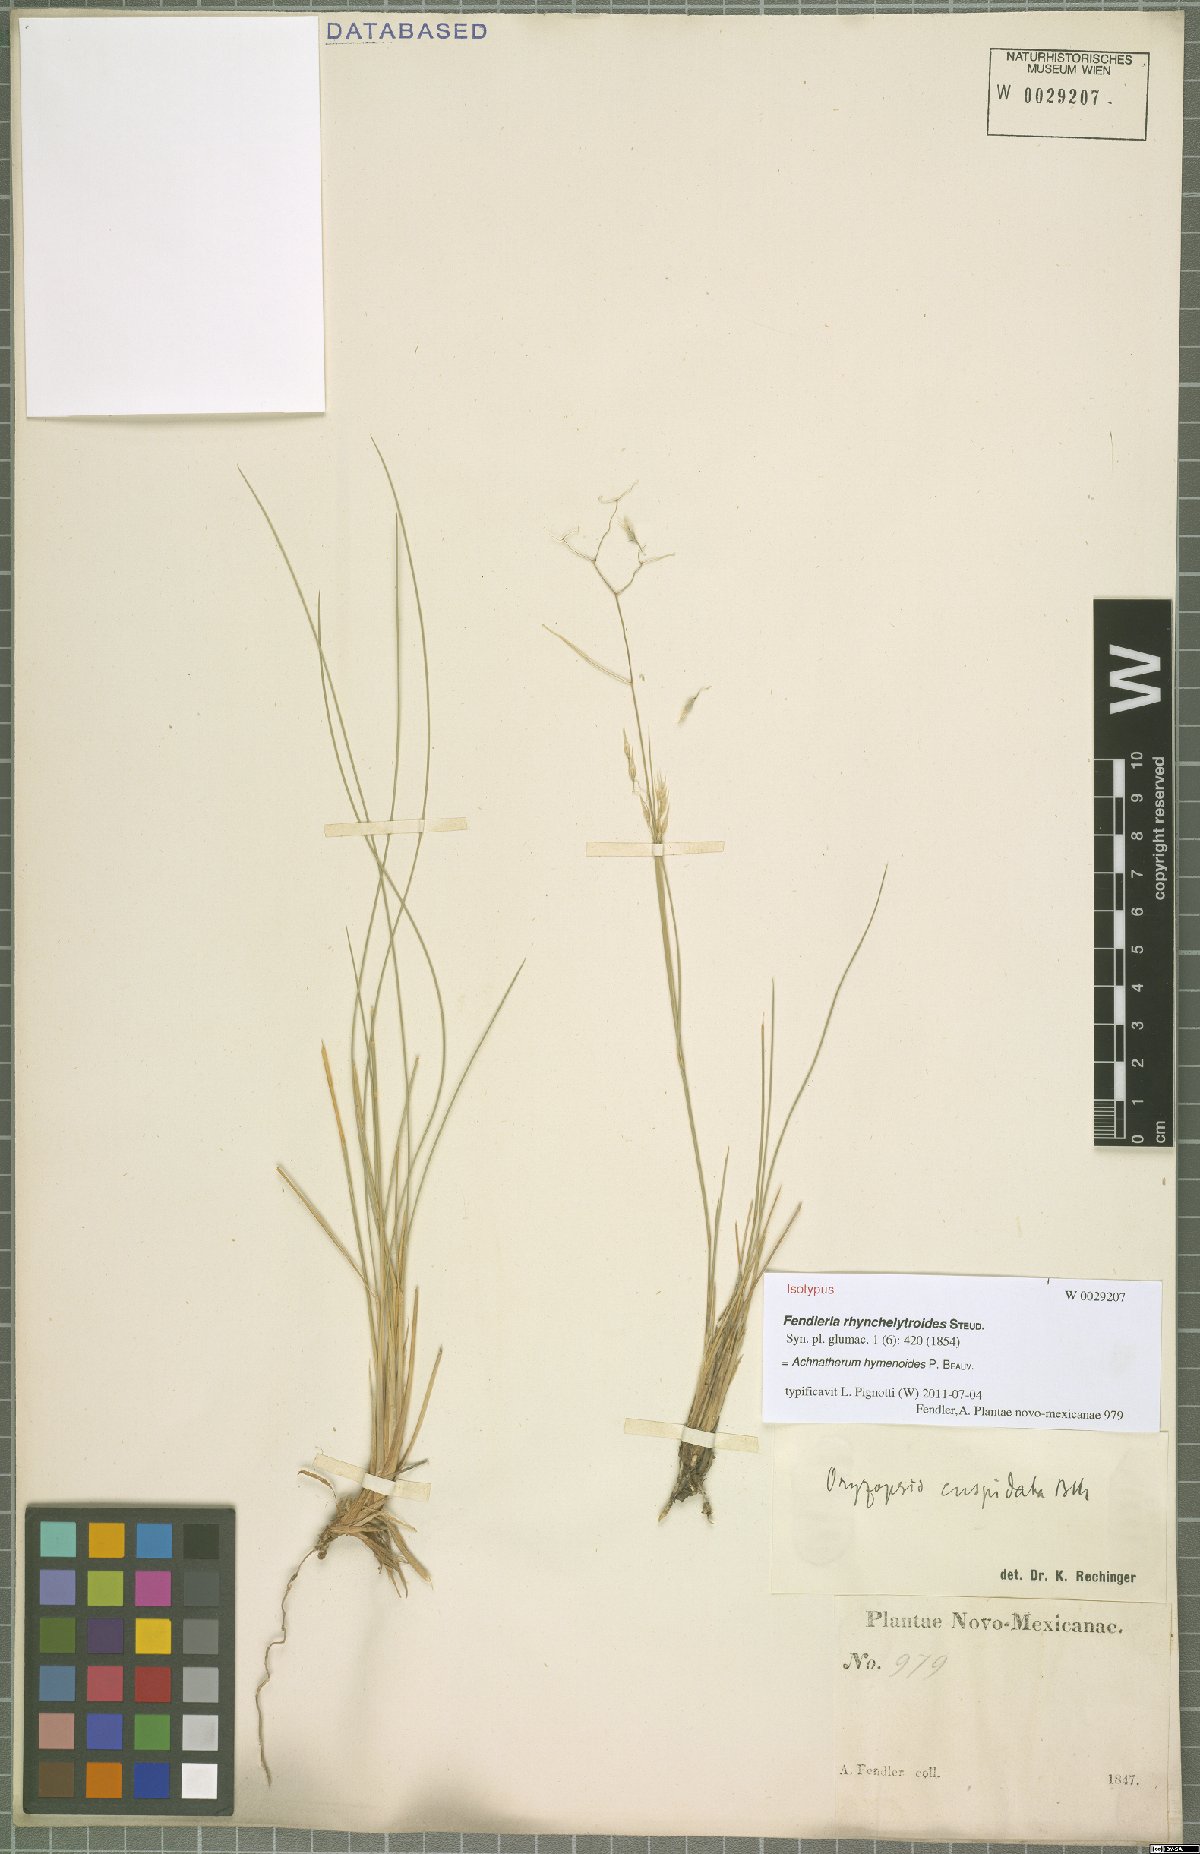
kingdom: Plantae
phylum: Tracheophyta
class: Liliopsida
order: Poales
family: Poaceae
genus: Eriocoma
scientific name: Eriocoma hymenoides
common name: Indian mountain ricegrass
